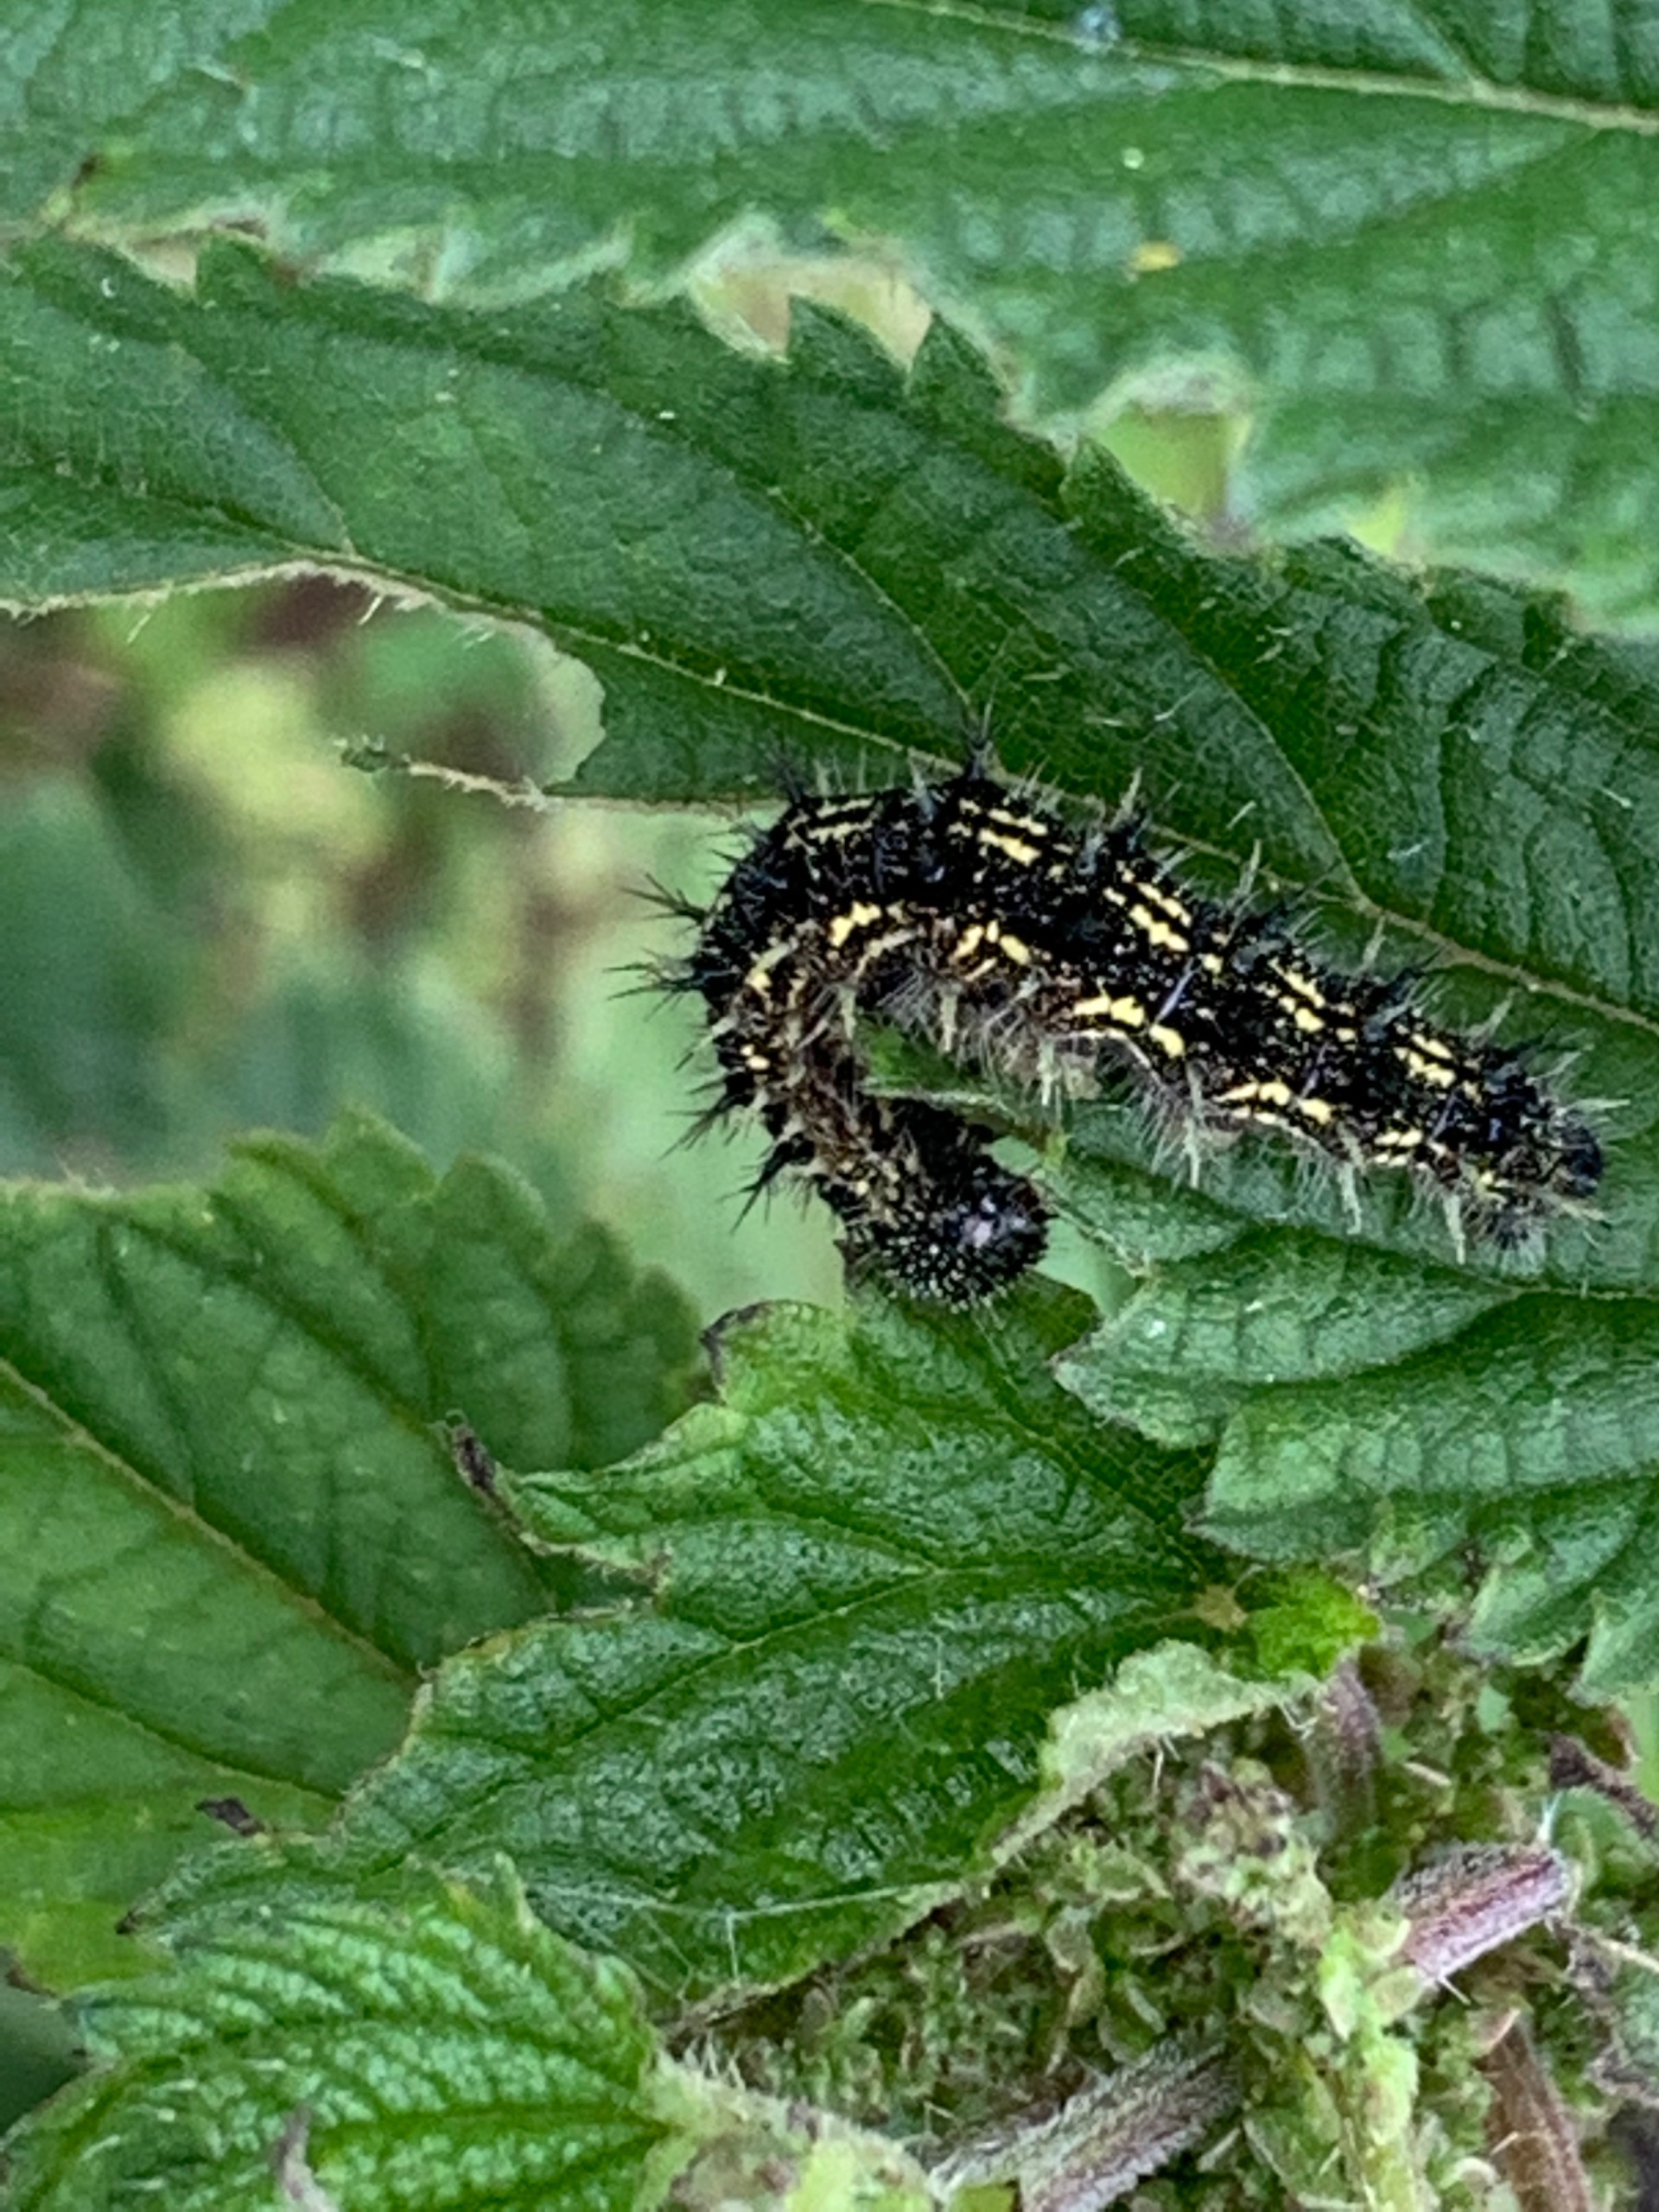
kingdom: Animalia
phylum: Arthropoda
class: Insecta
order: Lepidoptera
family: Nymphalidae
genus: Aglais
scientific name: Aglais urticae
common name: Nældens takvinge
